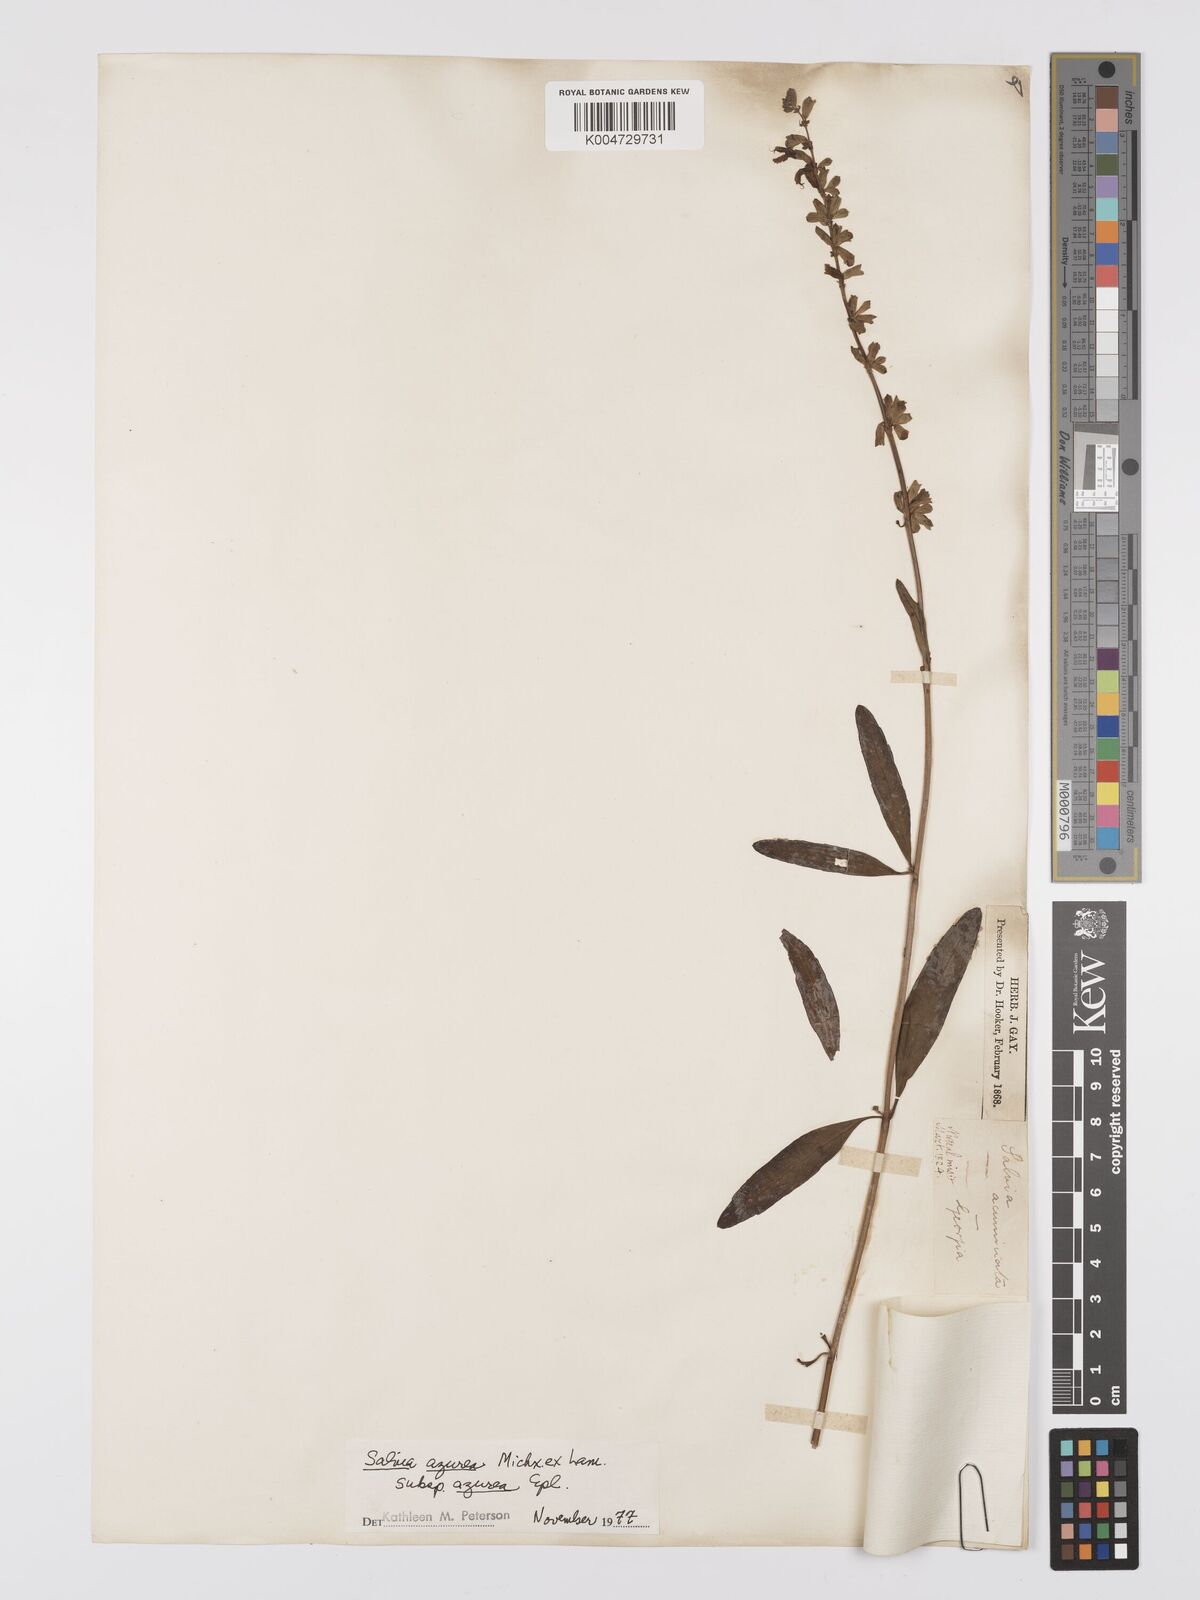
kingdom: Plantae
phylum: Tracheophyta
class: Magnoliopsida
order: Lamiales
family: Lamiaceae
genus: Salvia
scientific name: Salvia azurea
